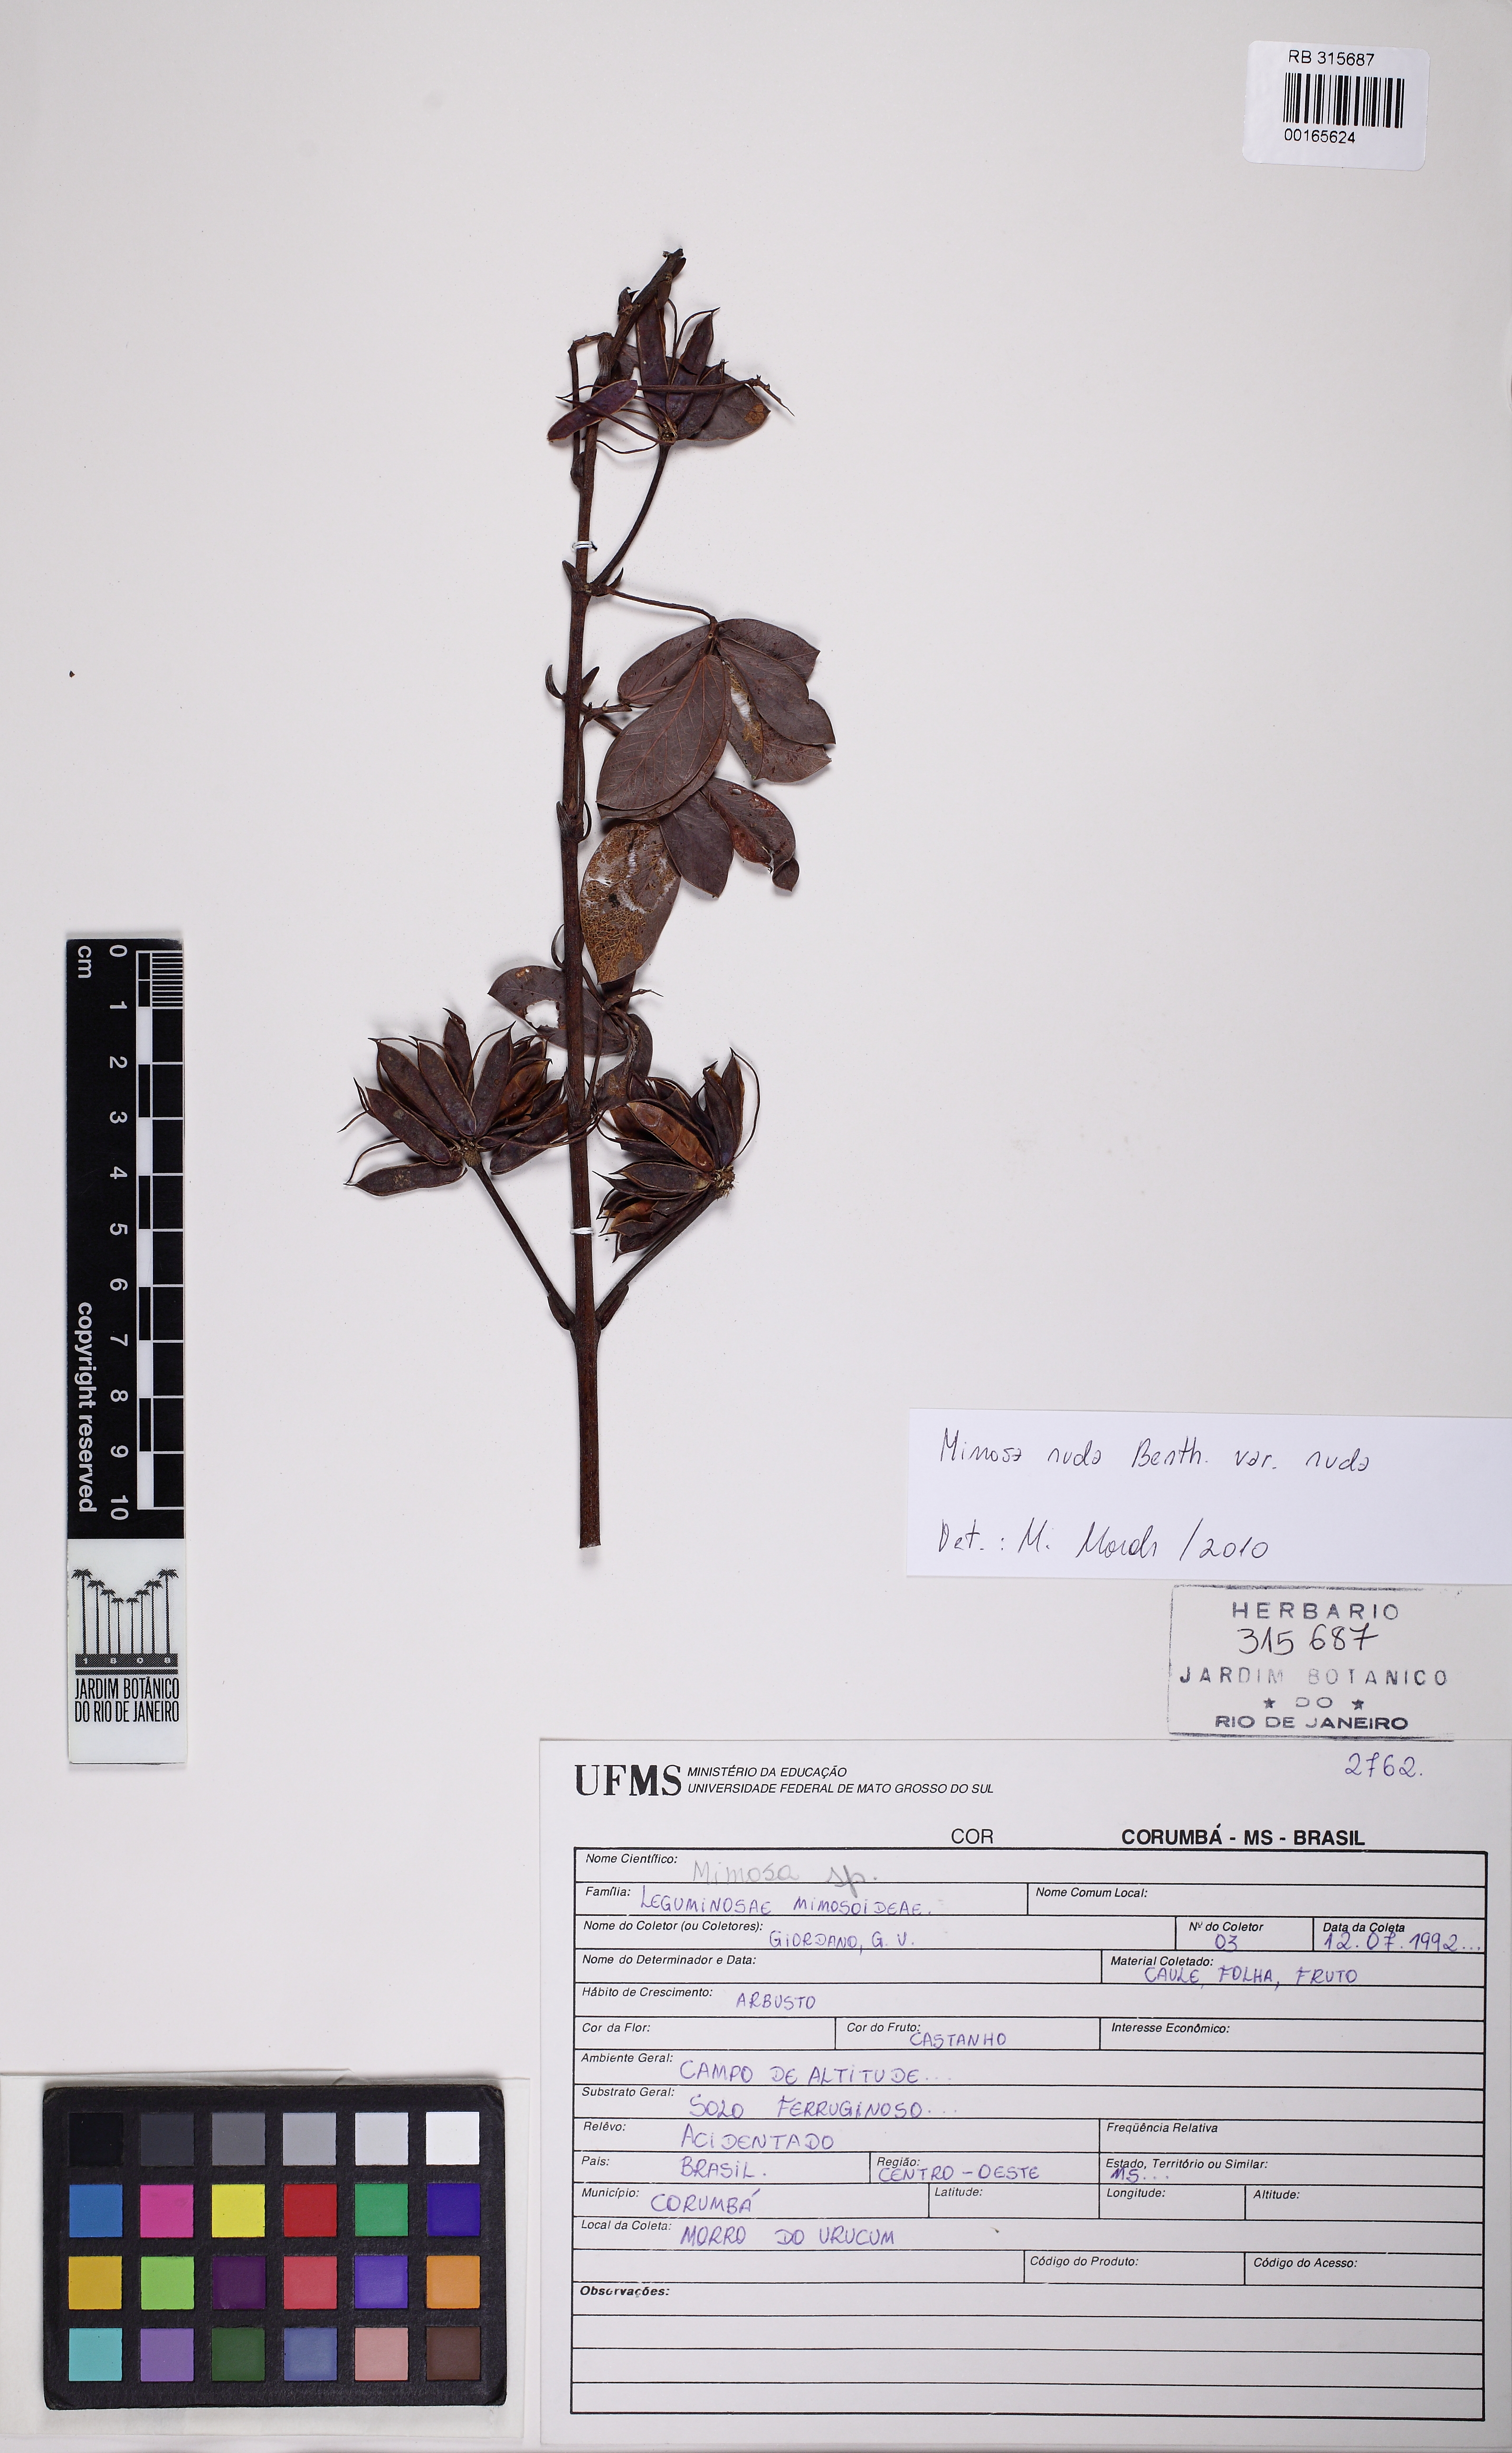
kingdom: Plantae
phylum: Tracheophyta
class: Magnoliopsida
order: Fabales
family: Fabaceae
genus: Mimosa
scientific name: Mimosa debilis
